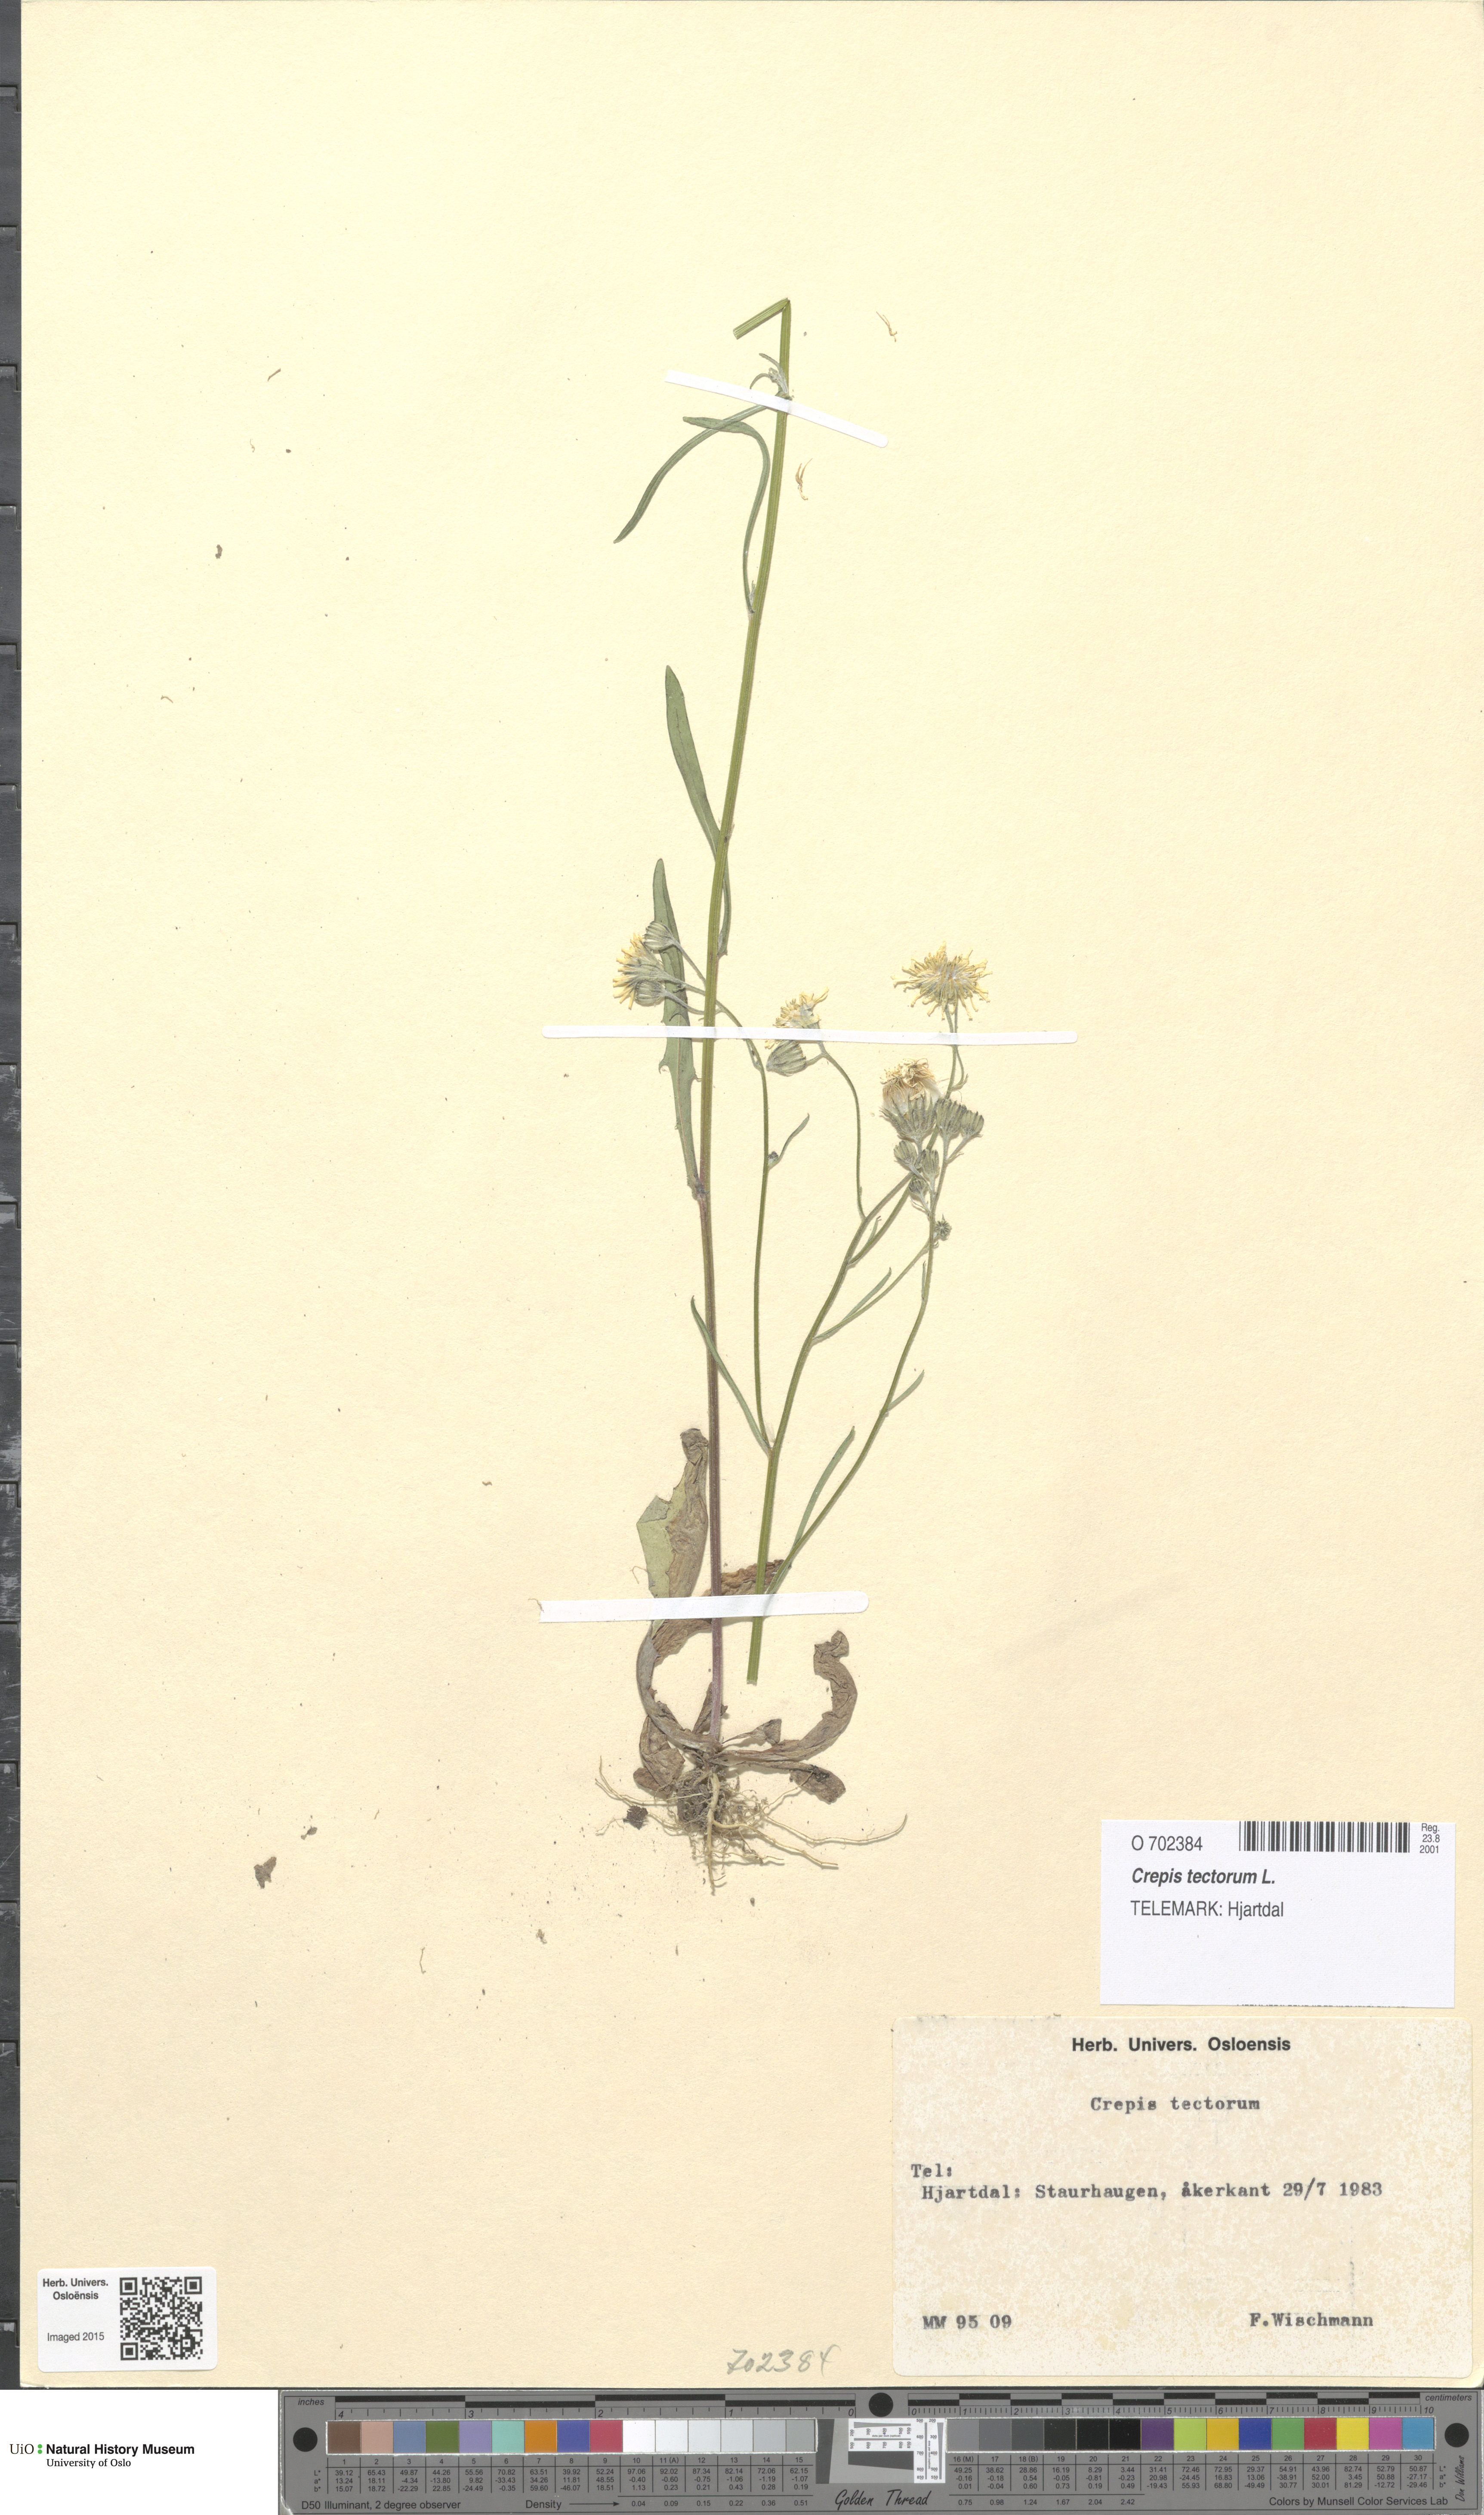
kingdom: Plantae
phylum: Tracheophyta
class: Magnoliopsida
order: Asterales
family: Asteraceae
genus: Crepis
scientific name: Crepis tectorum
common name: Narrow-leaved hawk's-beard
